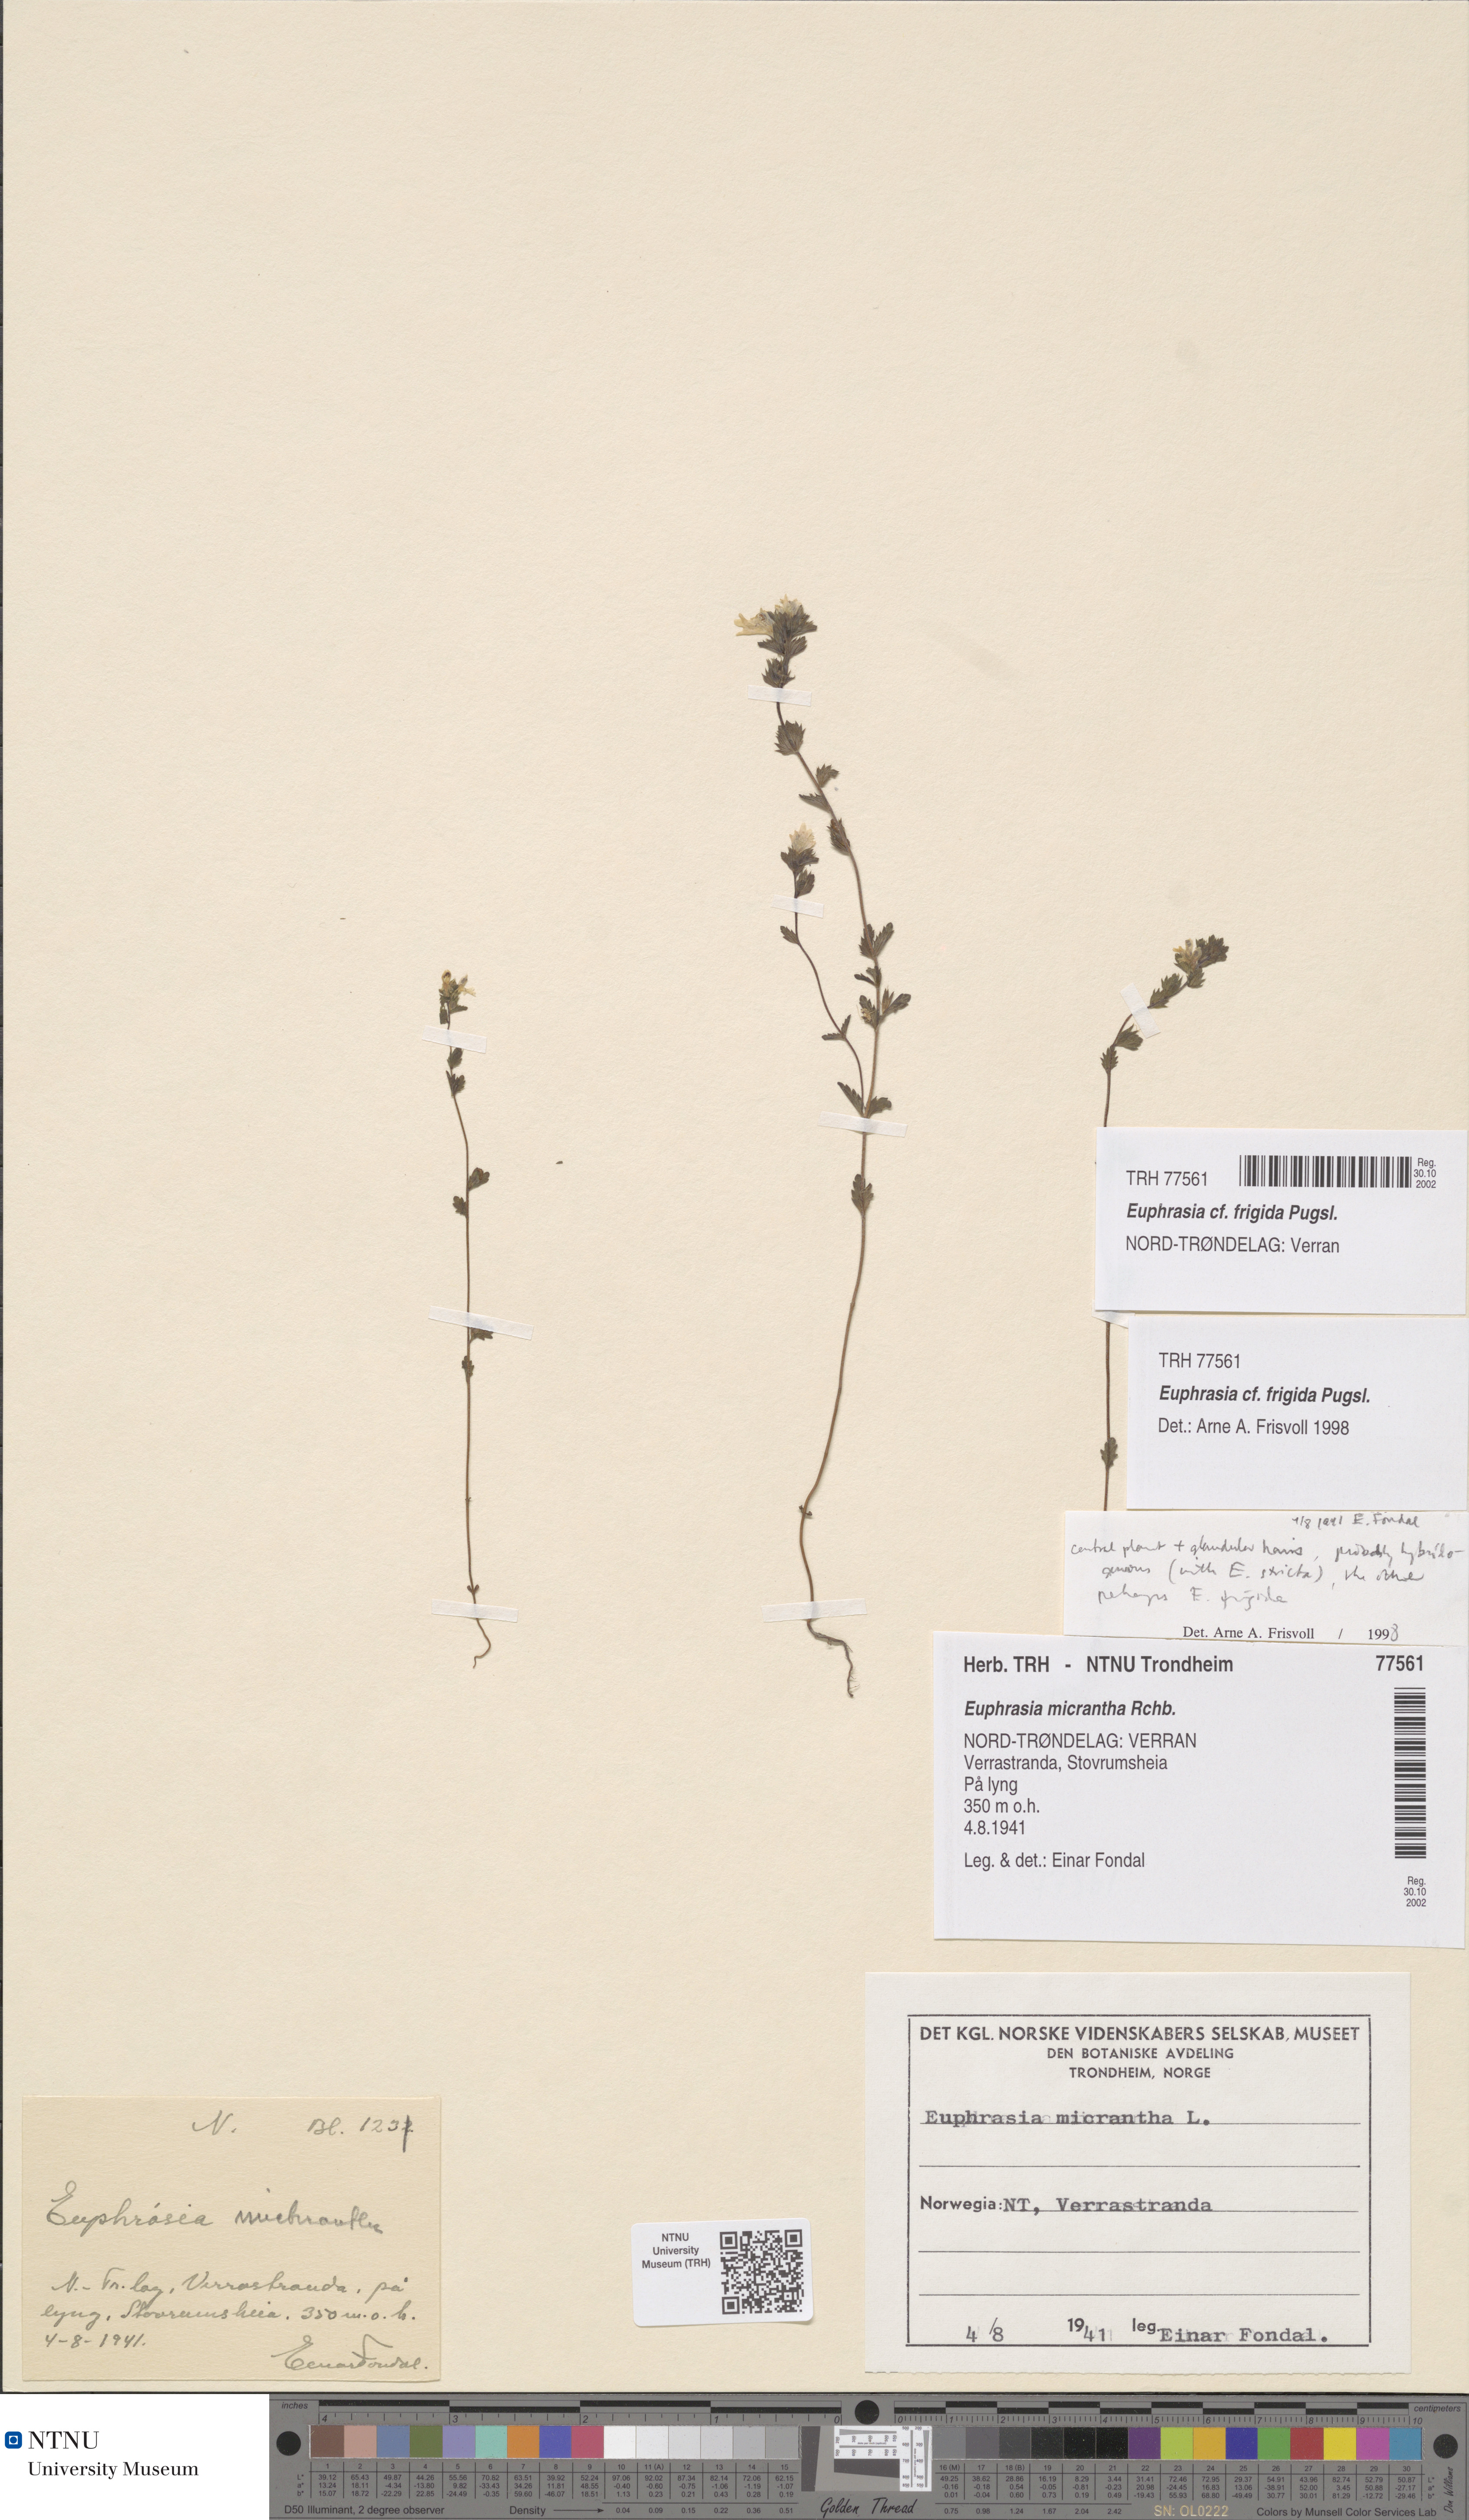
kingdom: Plantae
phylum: Tracheophyta
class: Magnoliopsida
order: Lamiales
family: Orobanchaceae
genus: Euphrasia
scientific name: Euphrasia wettsteinii
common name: Wettstein's eyebright
